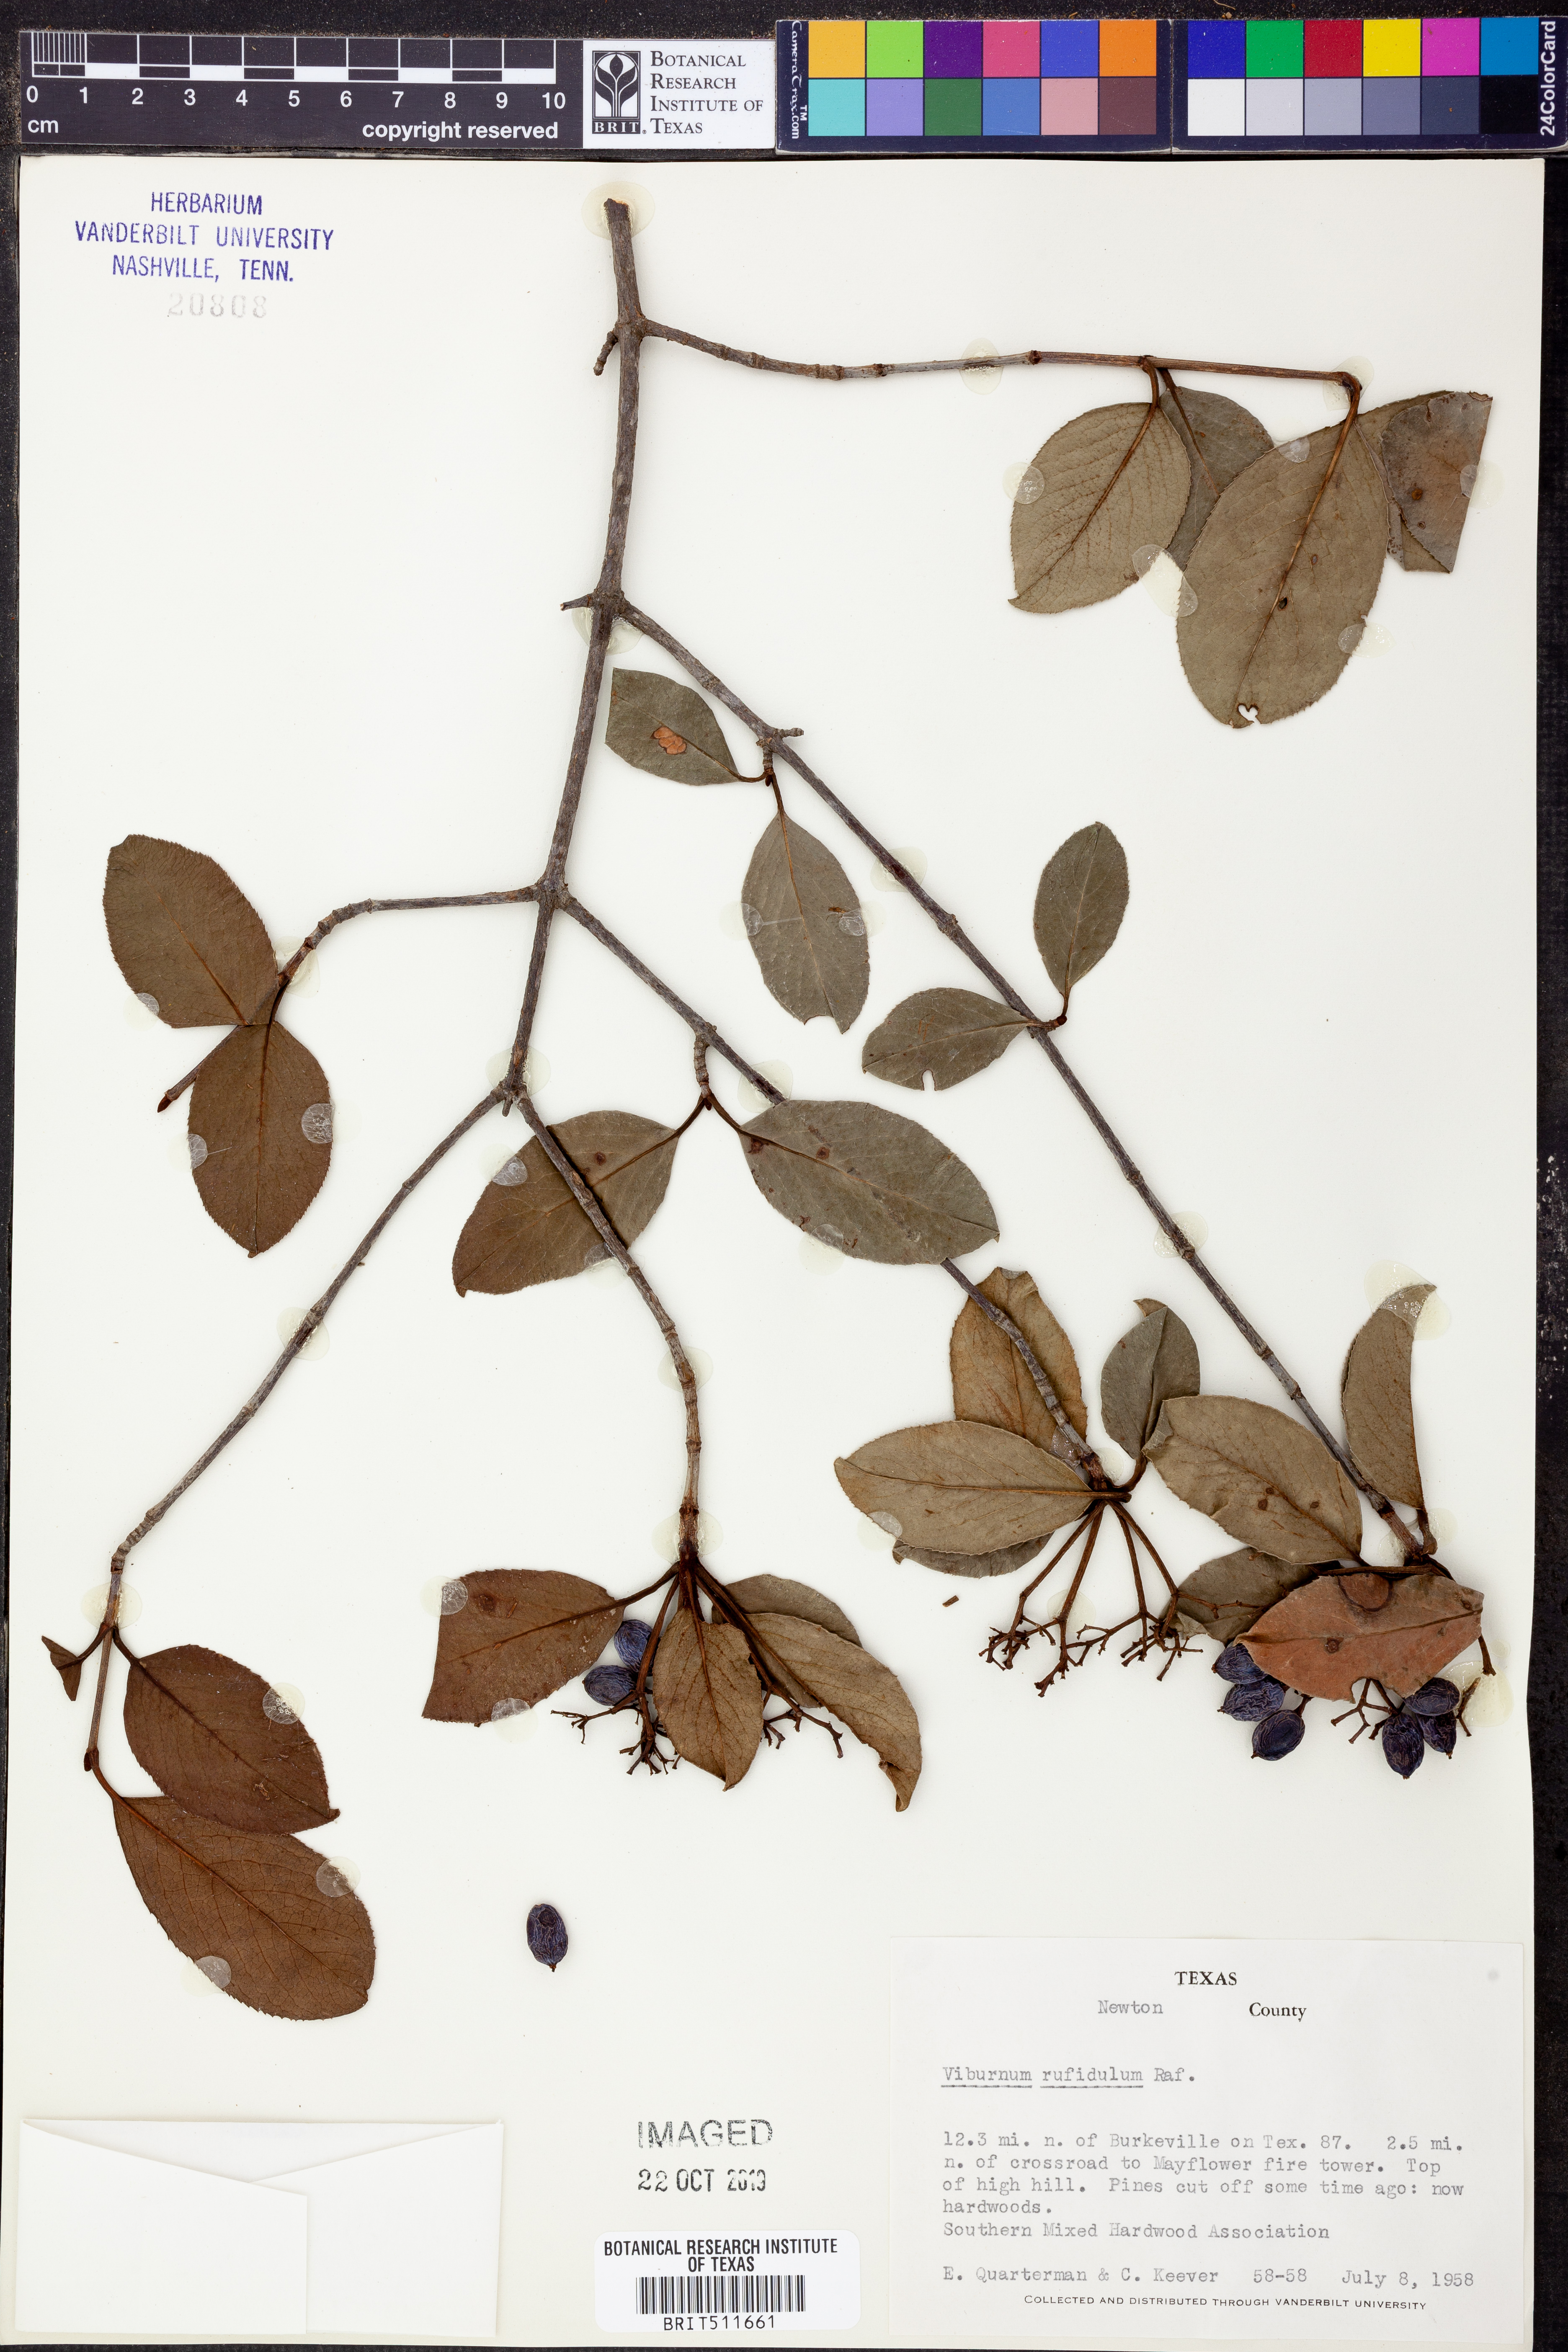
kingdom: Plantae
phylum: Tracheophyta
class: Magnoliopsida
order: Dipsacales
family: Viburnaceae
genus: Viburnum
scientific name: Viburnum rufidulum
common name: Blue haw
